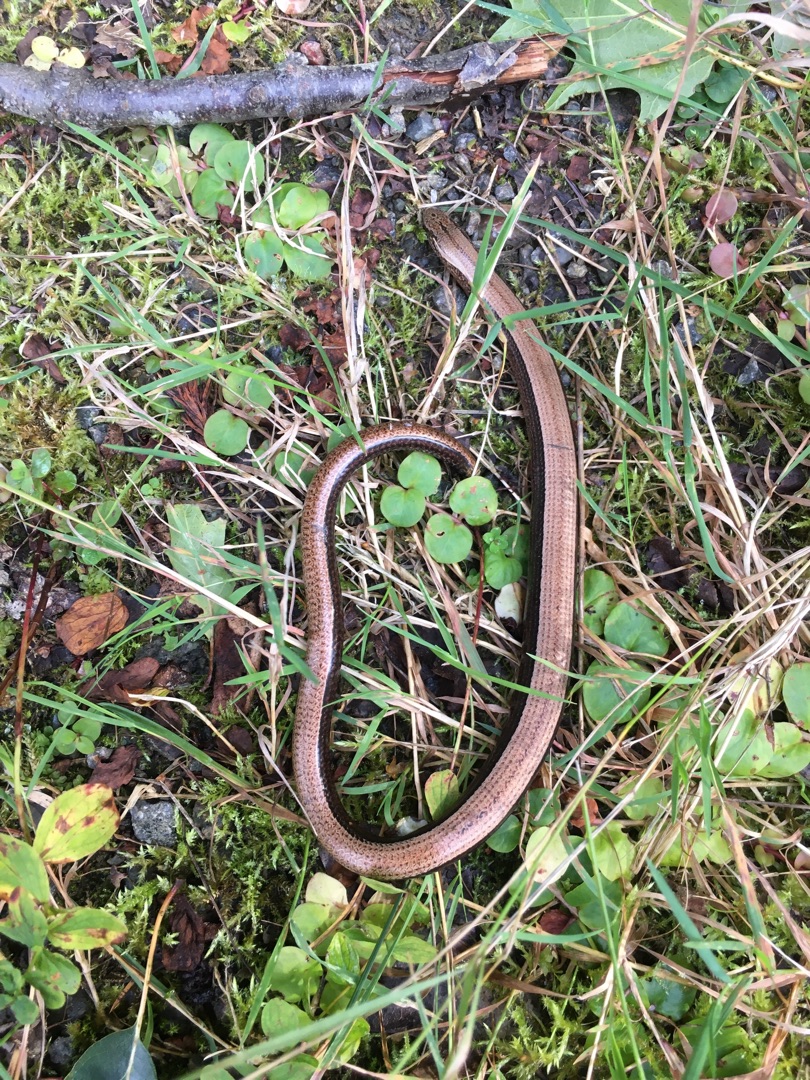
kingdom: Animalia
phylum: Chordata
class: Squamata
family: Anguidae
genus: Anguis
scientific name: Anguis fragilis
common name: Stålorm
